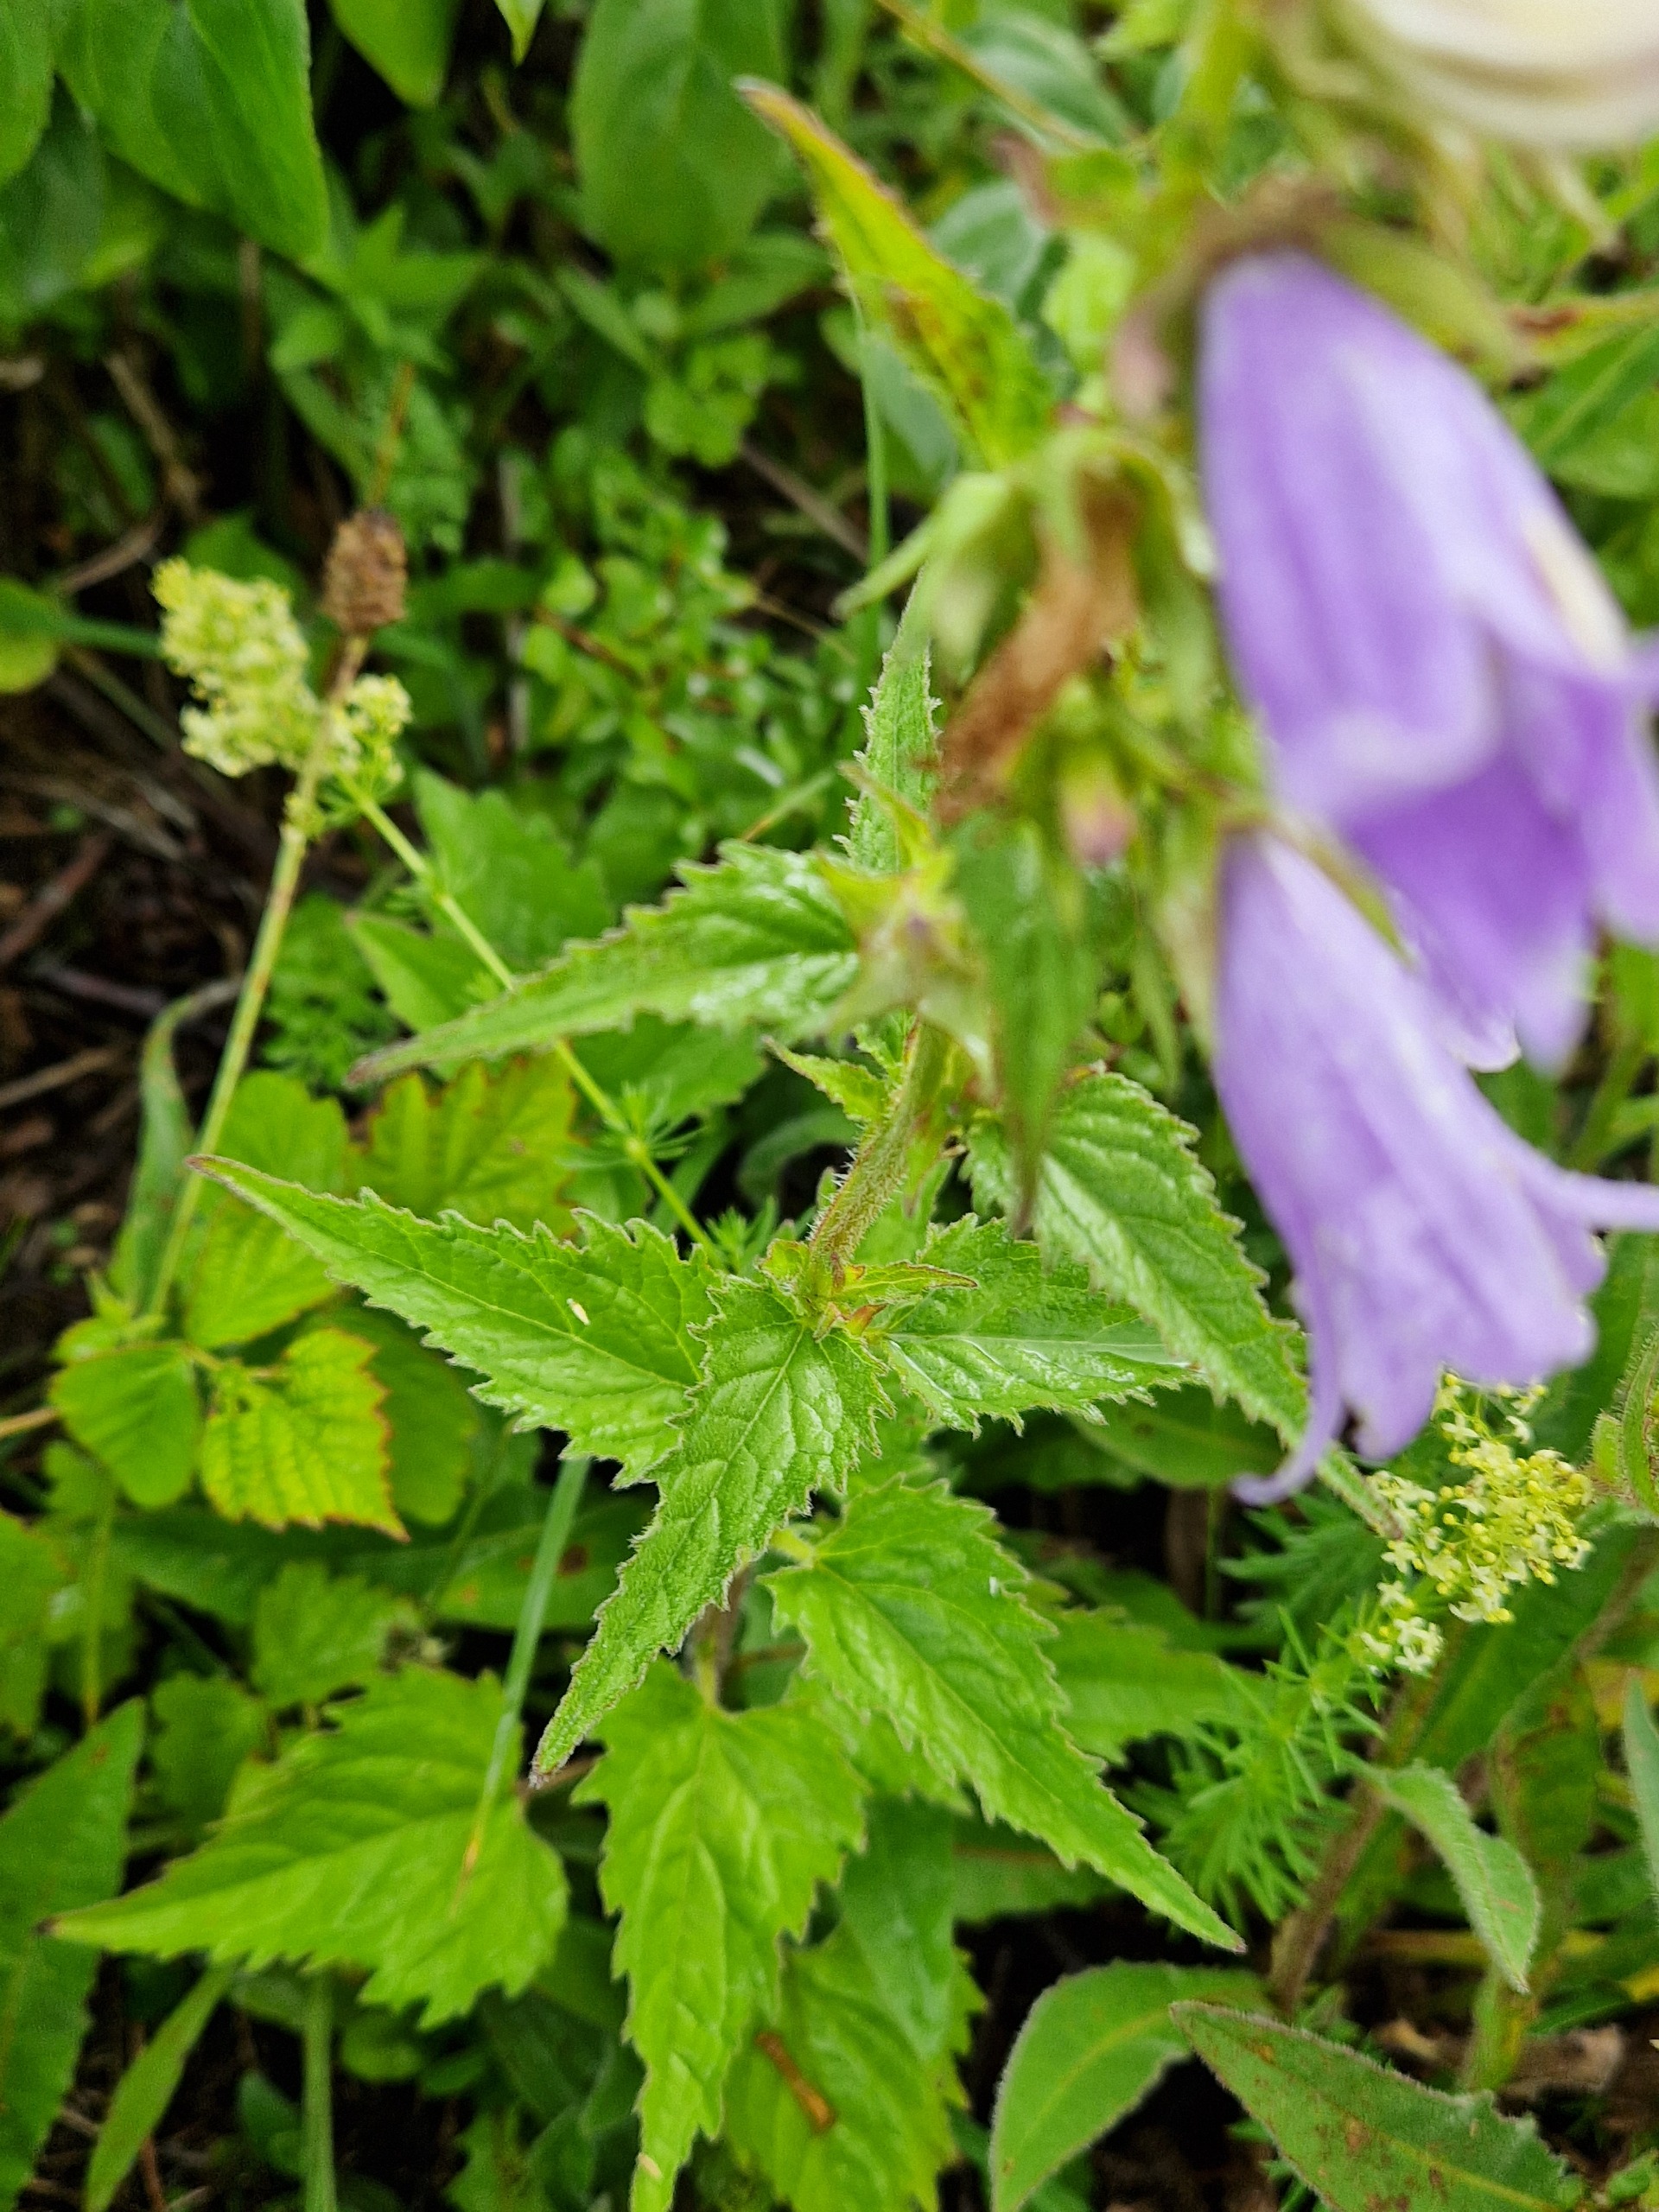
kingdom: Plantae
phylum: Tracheophyta
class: Magnoliopsida
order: Asterales
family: Campanulaceae
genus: Campanula
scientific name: Campanula trachelium
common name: Nælde-klokke
